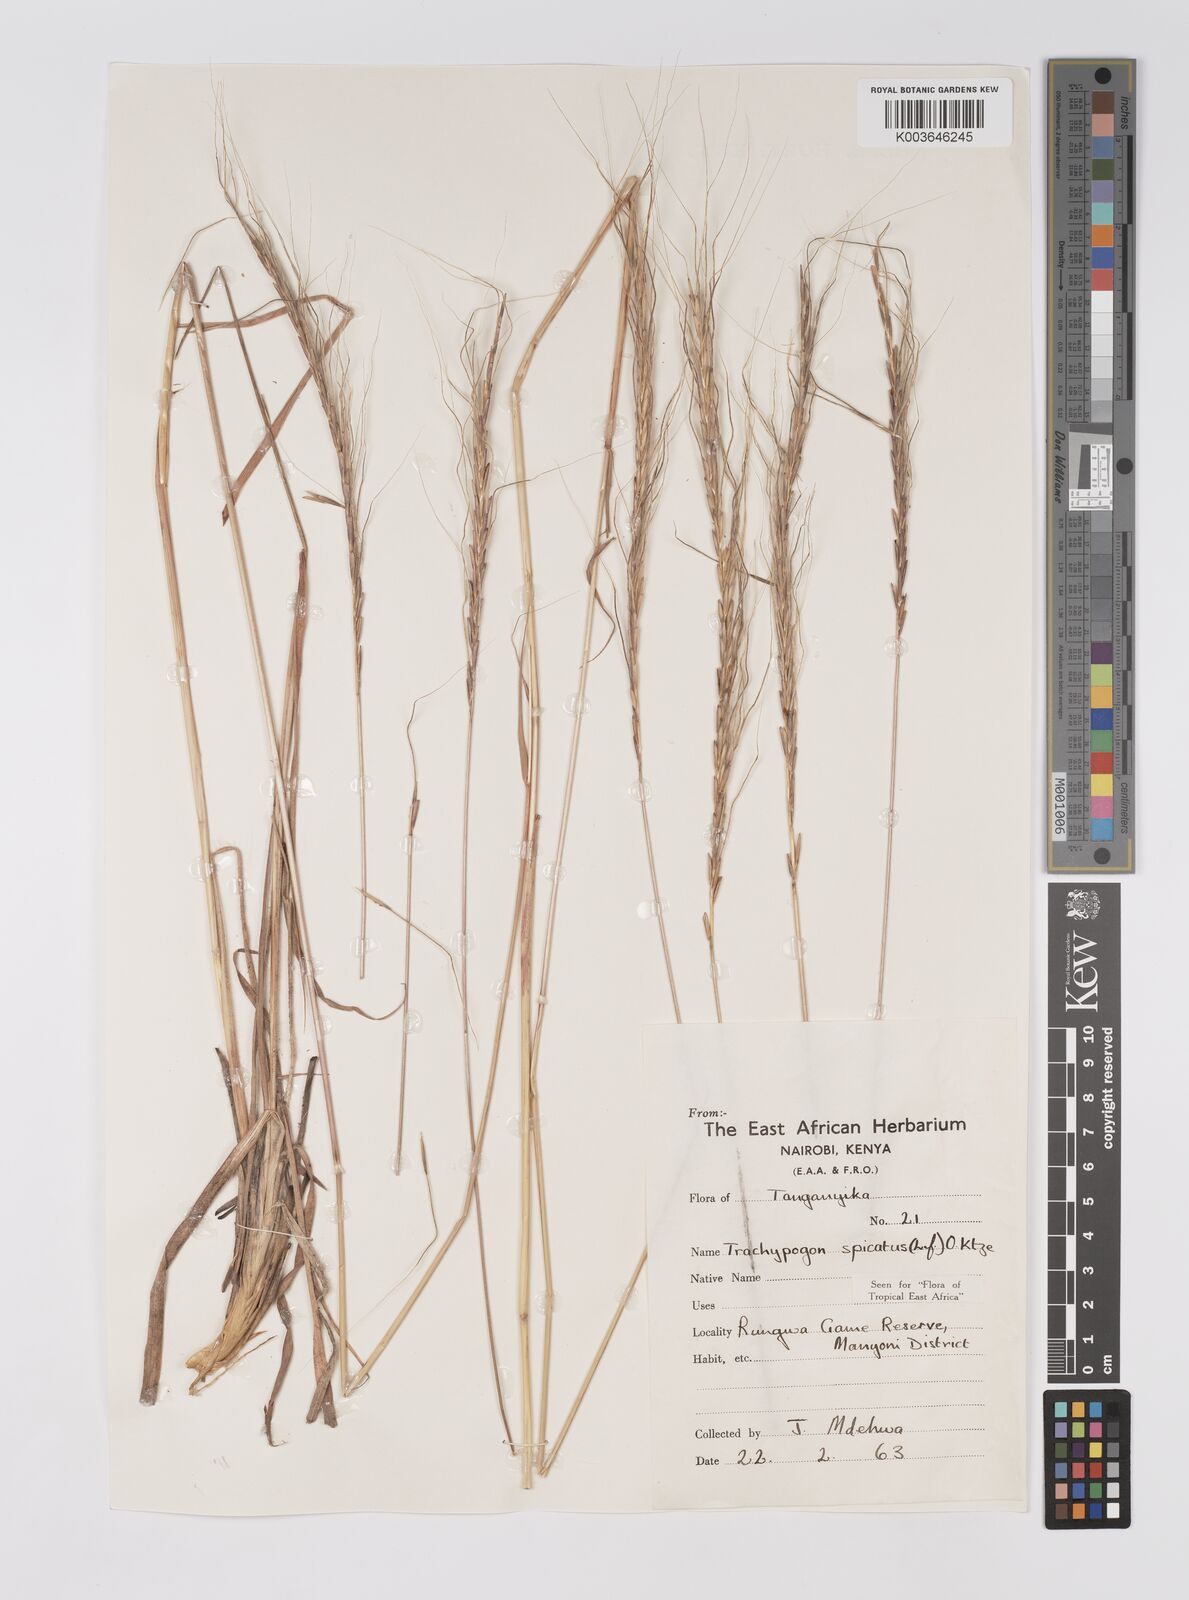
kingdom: Plantae
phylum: Tracheophyta
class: Liliopsida
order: Poales
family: Poaceae
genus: Trachypogon
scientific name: Trachypogon spicatus
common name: Crinkle-awn
